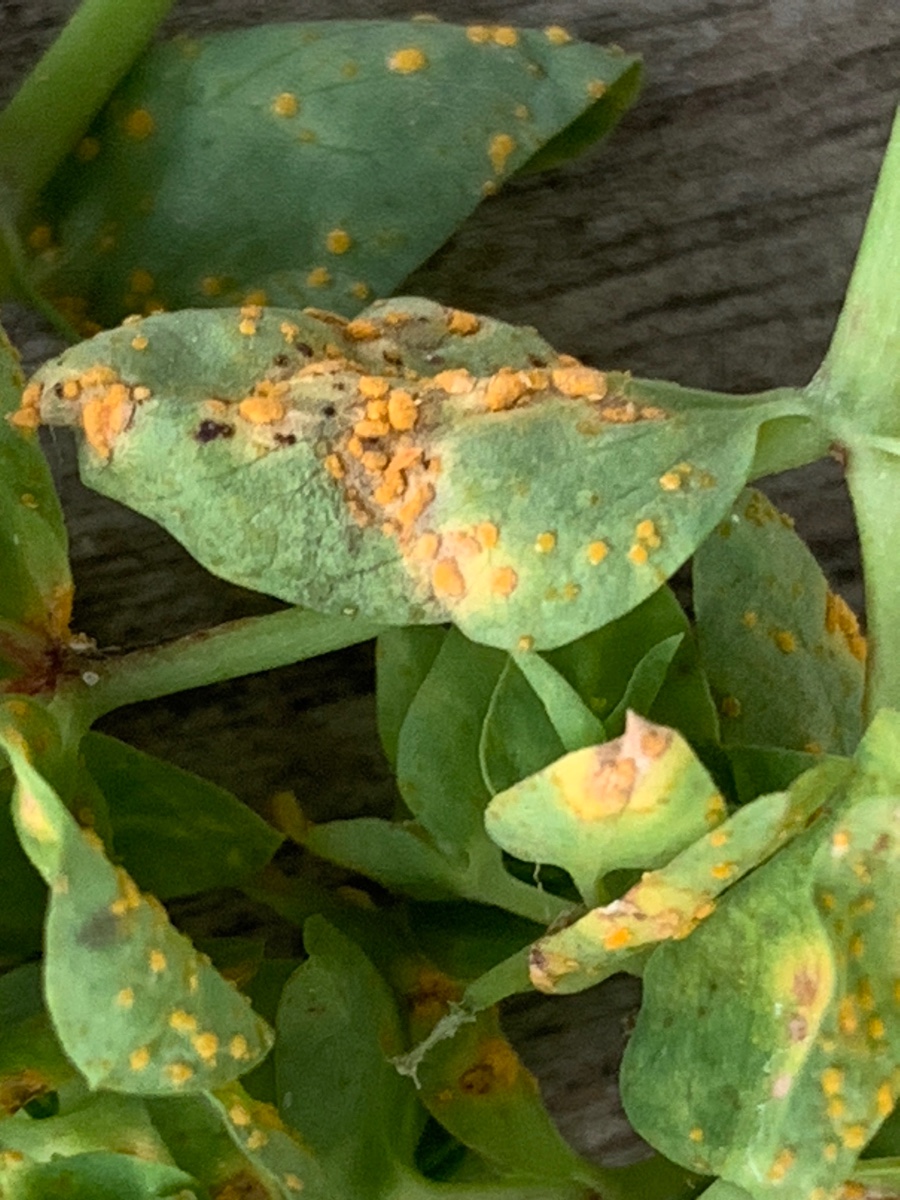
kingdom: Fungi
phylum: Basidiomycota
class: Pucciniomycetes
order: Pucciniales
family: Melampsoraceae
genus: Melampsora
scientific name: Melampsora euphorbiae
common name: vortemælk-skorperust
